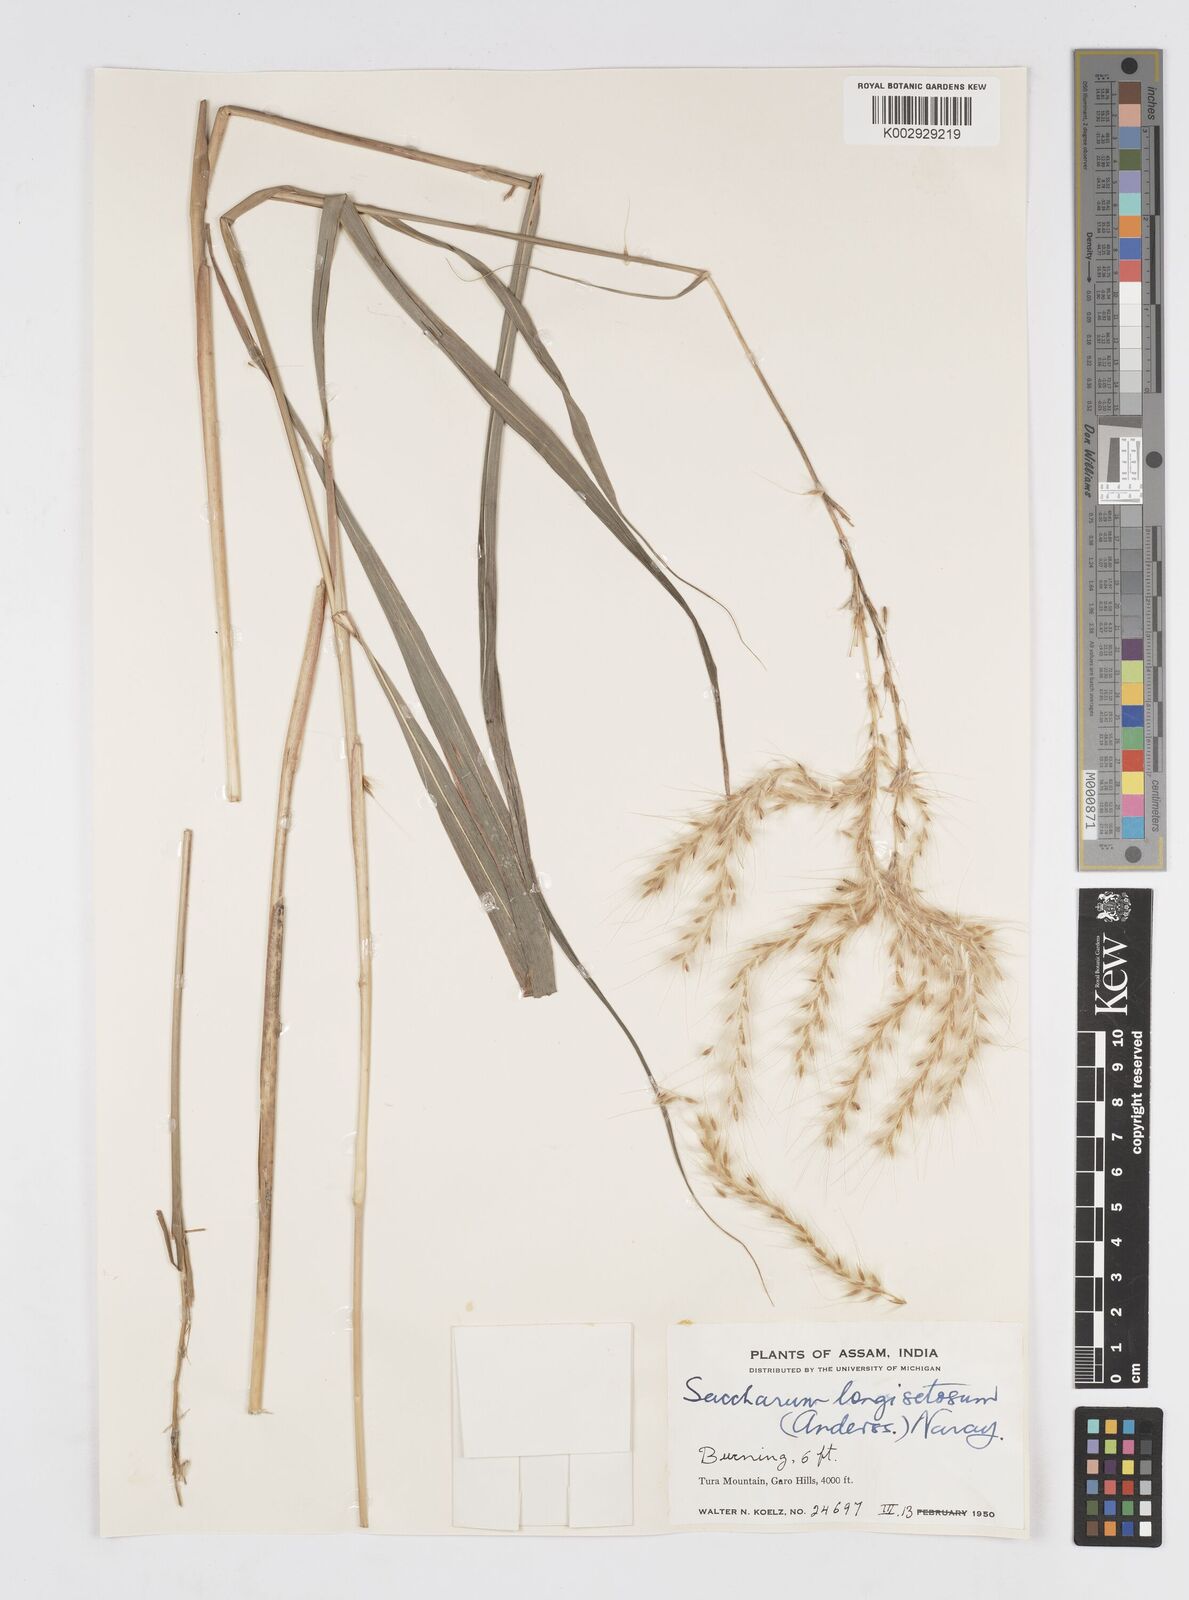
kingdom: Plantae
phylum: Tracheophyta
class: Liliopsida
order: Poales
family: Poaceae
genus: Melinis
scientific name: Melinis longiseta
